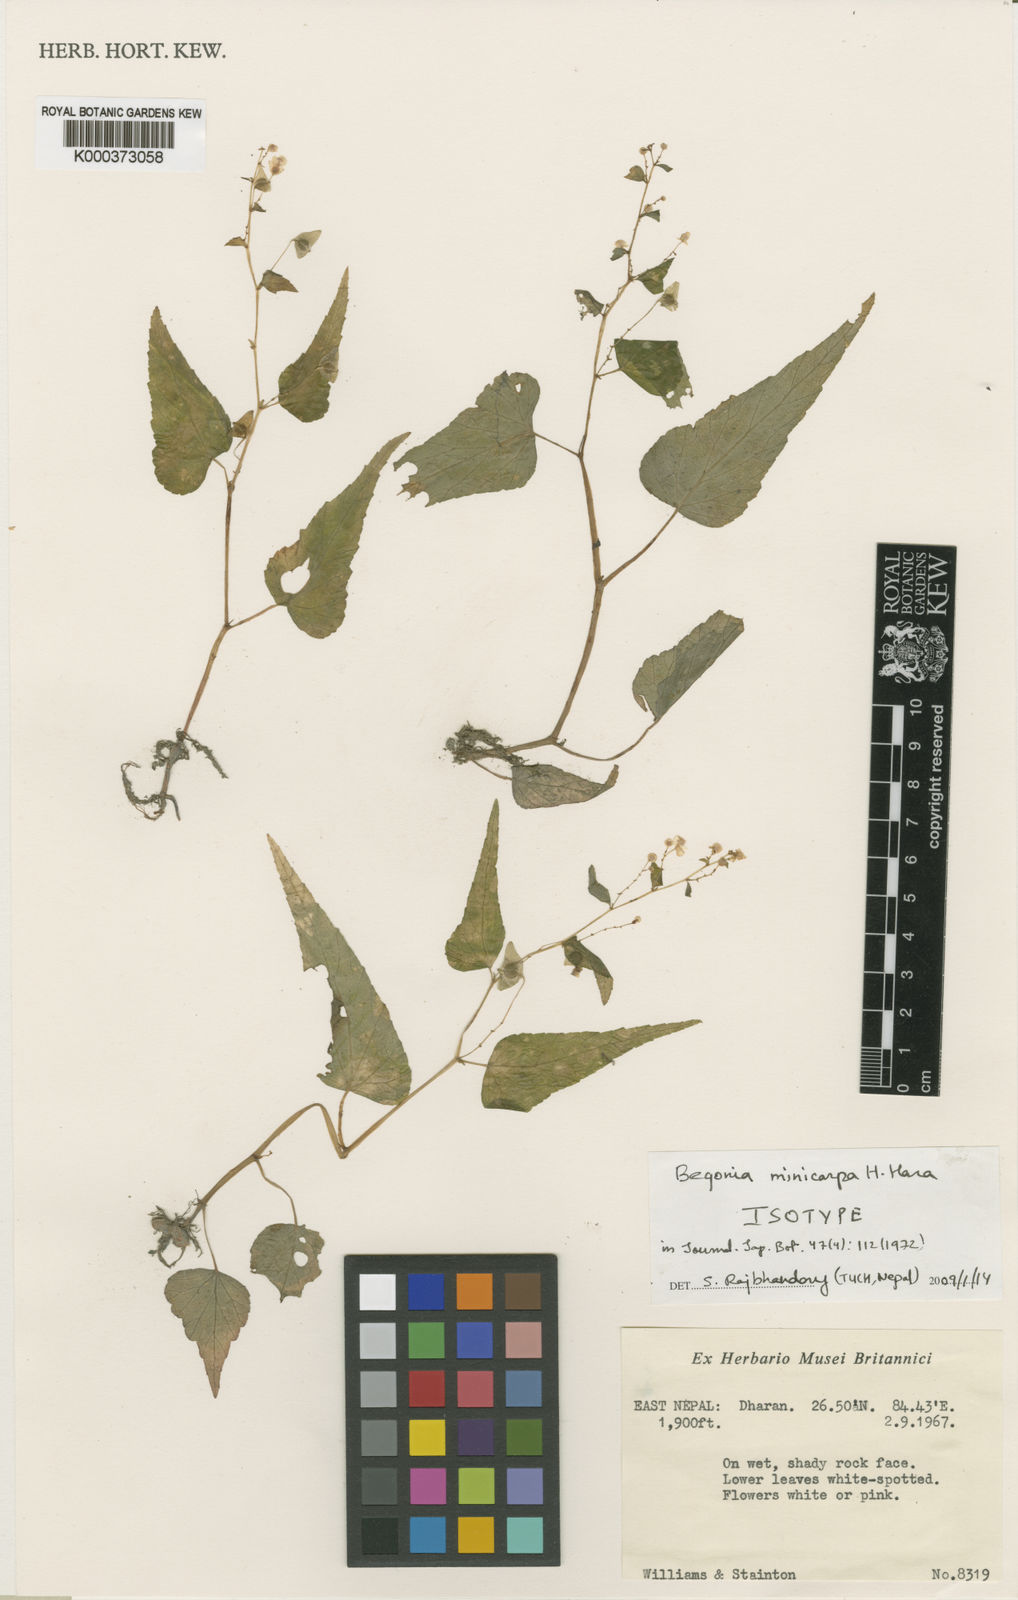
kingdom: Plantae
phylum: Tracheophyta
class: Magnoliopsida
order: Cucurbitales
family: Begoniaceae
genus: Begonia
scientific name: Begonia minicarpa
